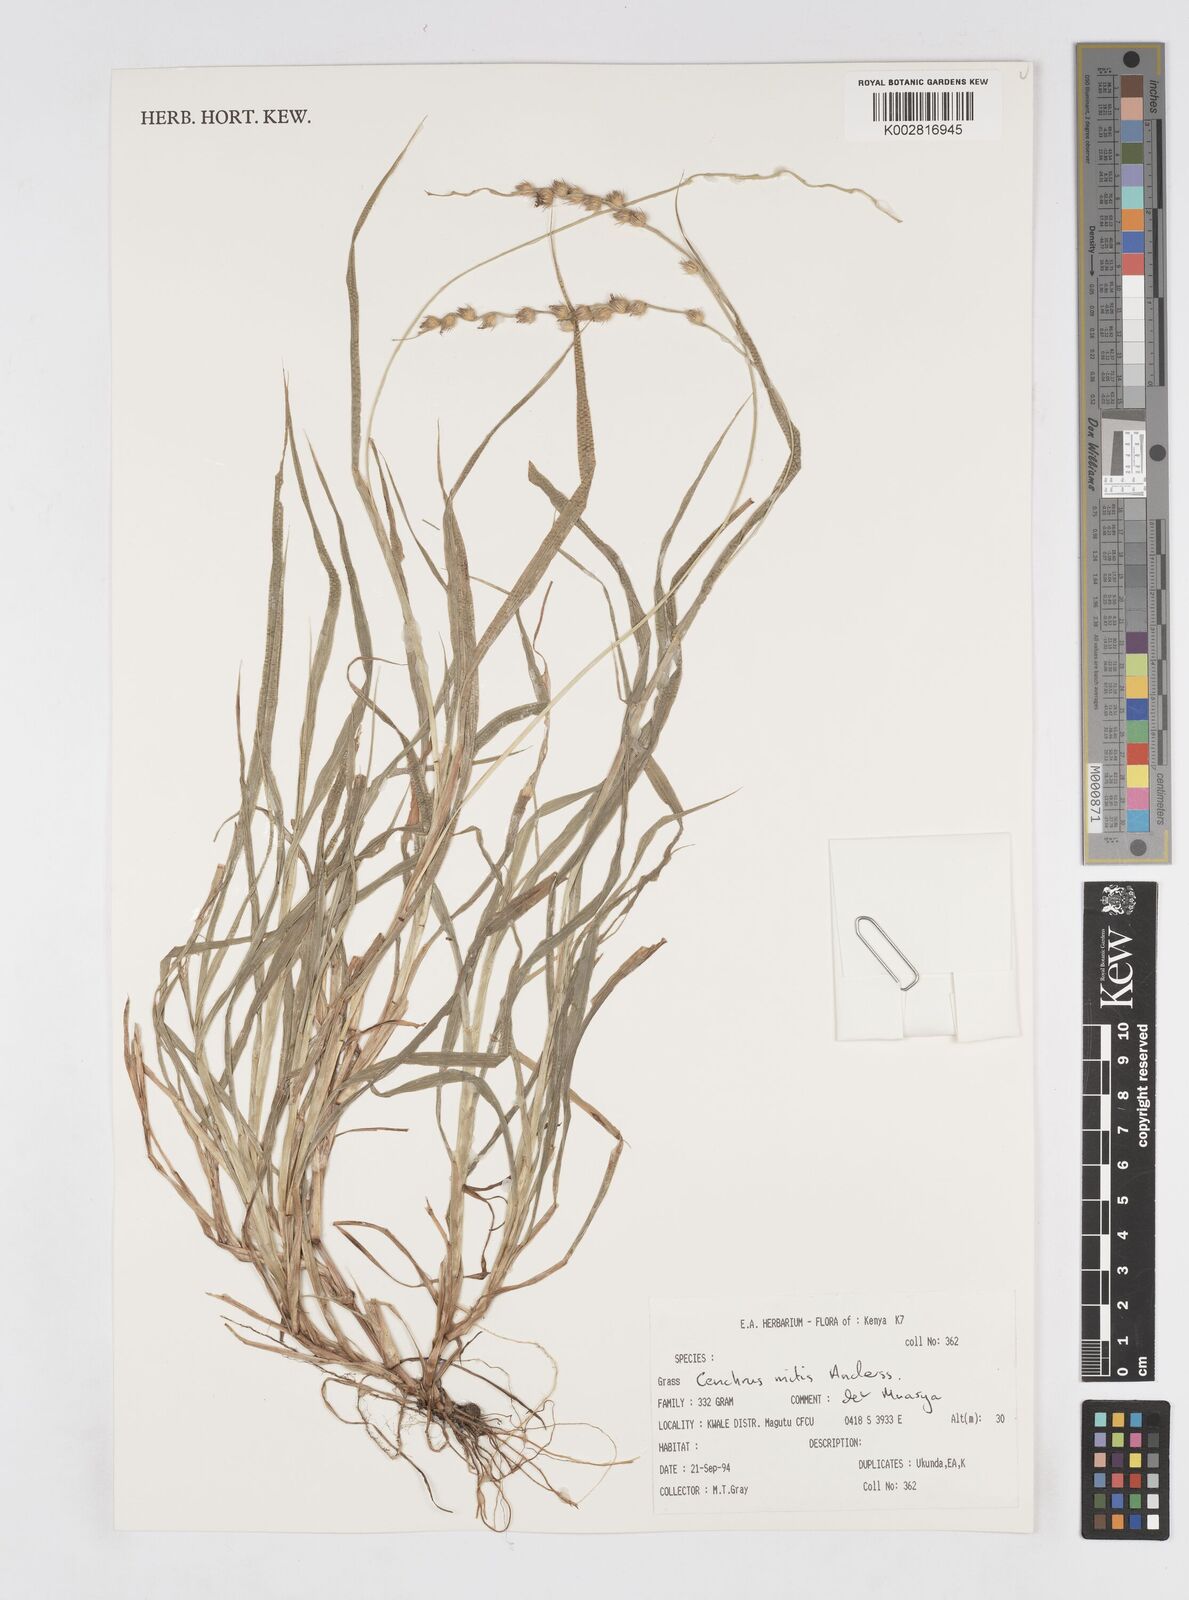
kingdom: Plantae
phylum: Tracheophyta
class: Liliopsida
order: Poales
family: Poaceae
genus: Cenchrus
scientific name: Cenchrus mitis
